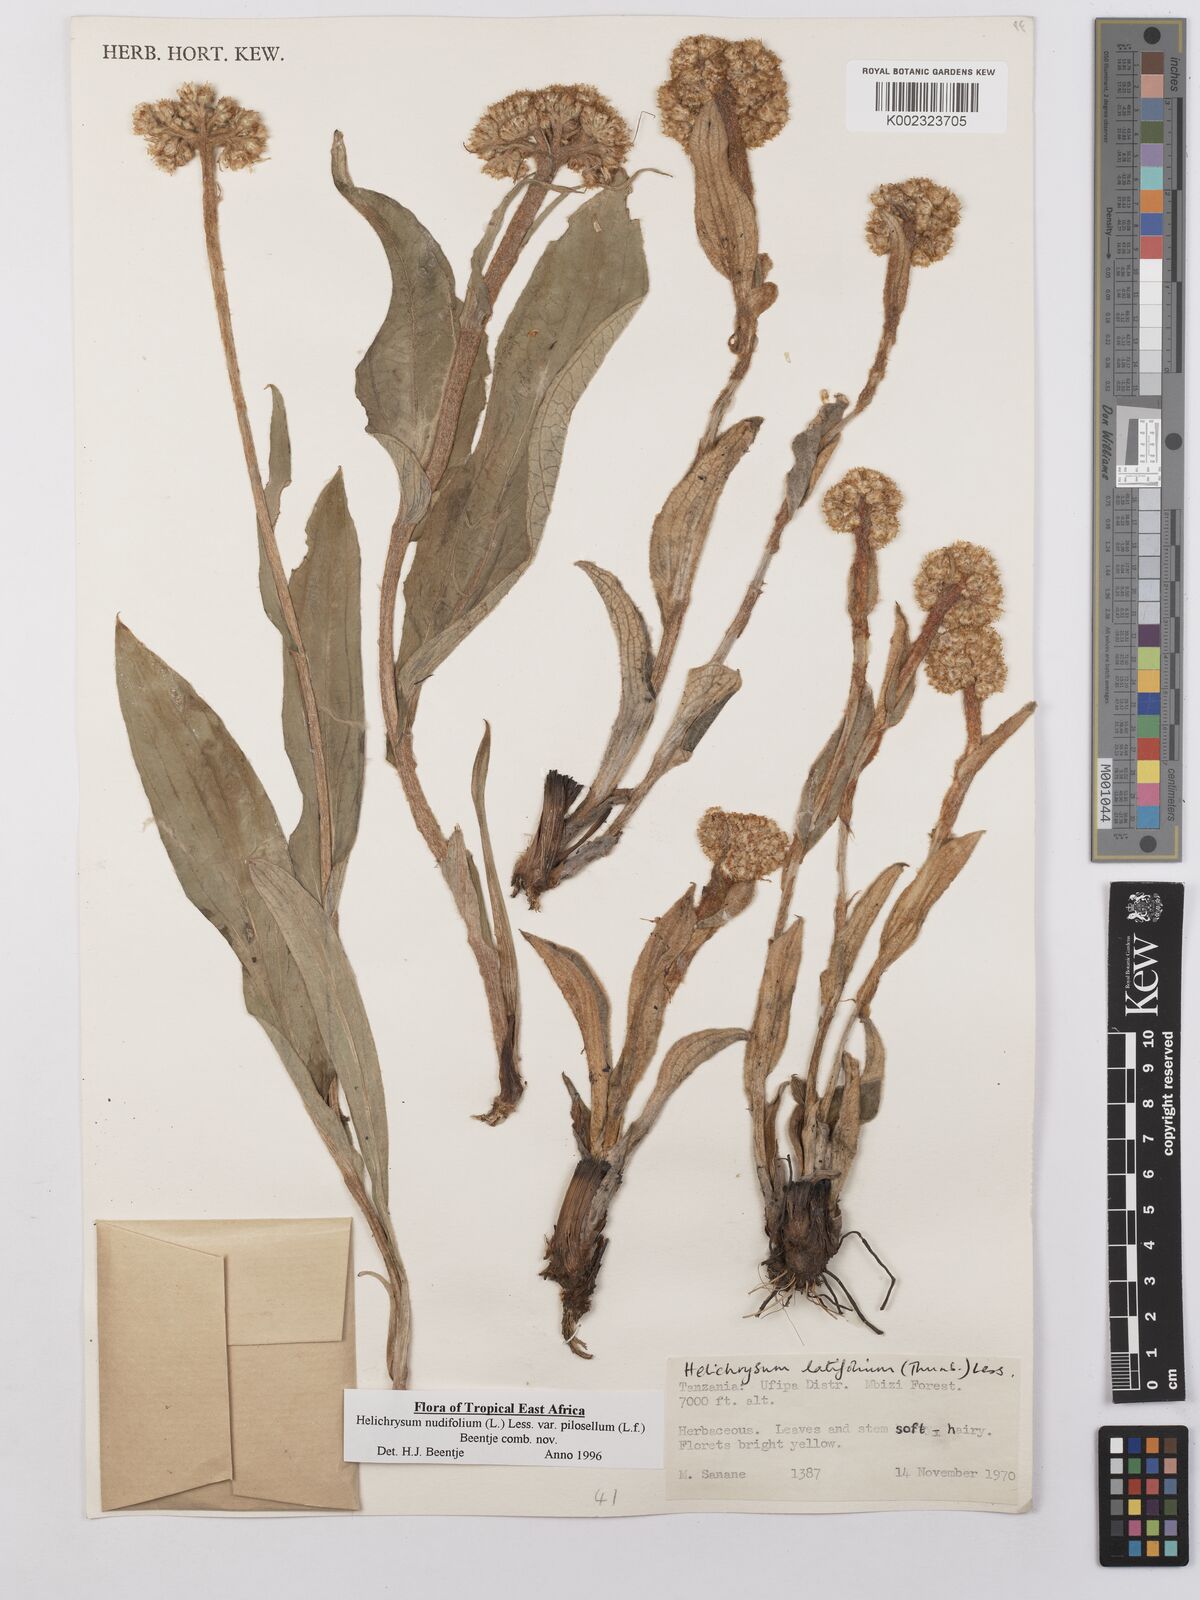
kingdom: Plantae
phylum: Tracheophyta
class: Magnoliopsida
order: Asterales
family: Asteraceae
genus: Helichrysum
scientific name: Helichrysum nudifolium
